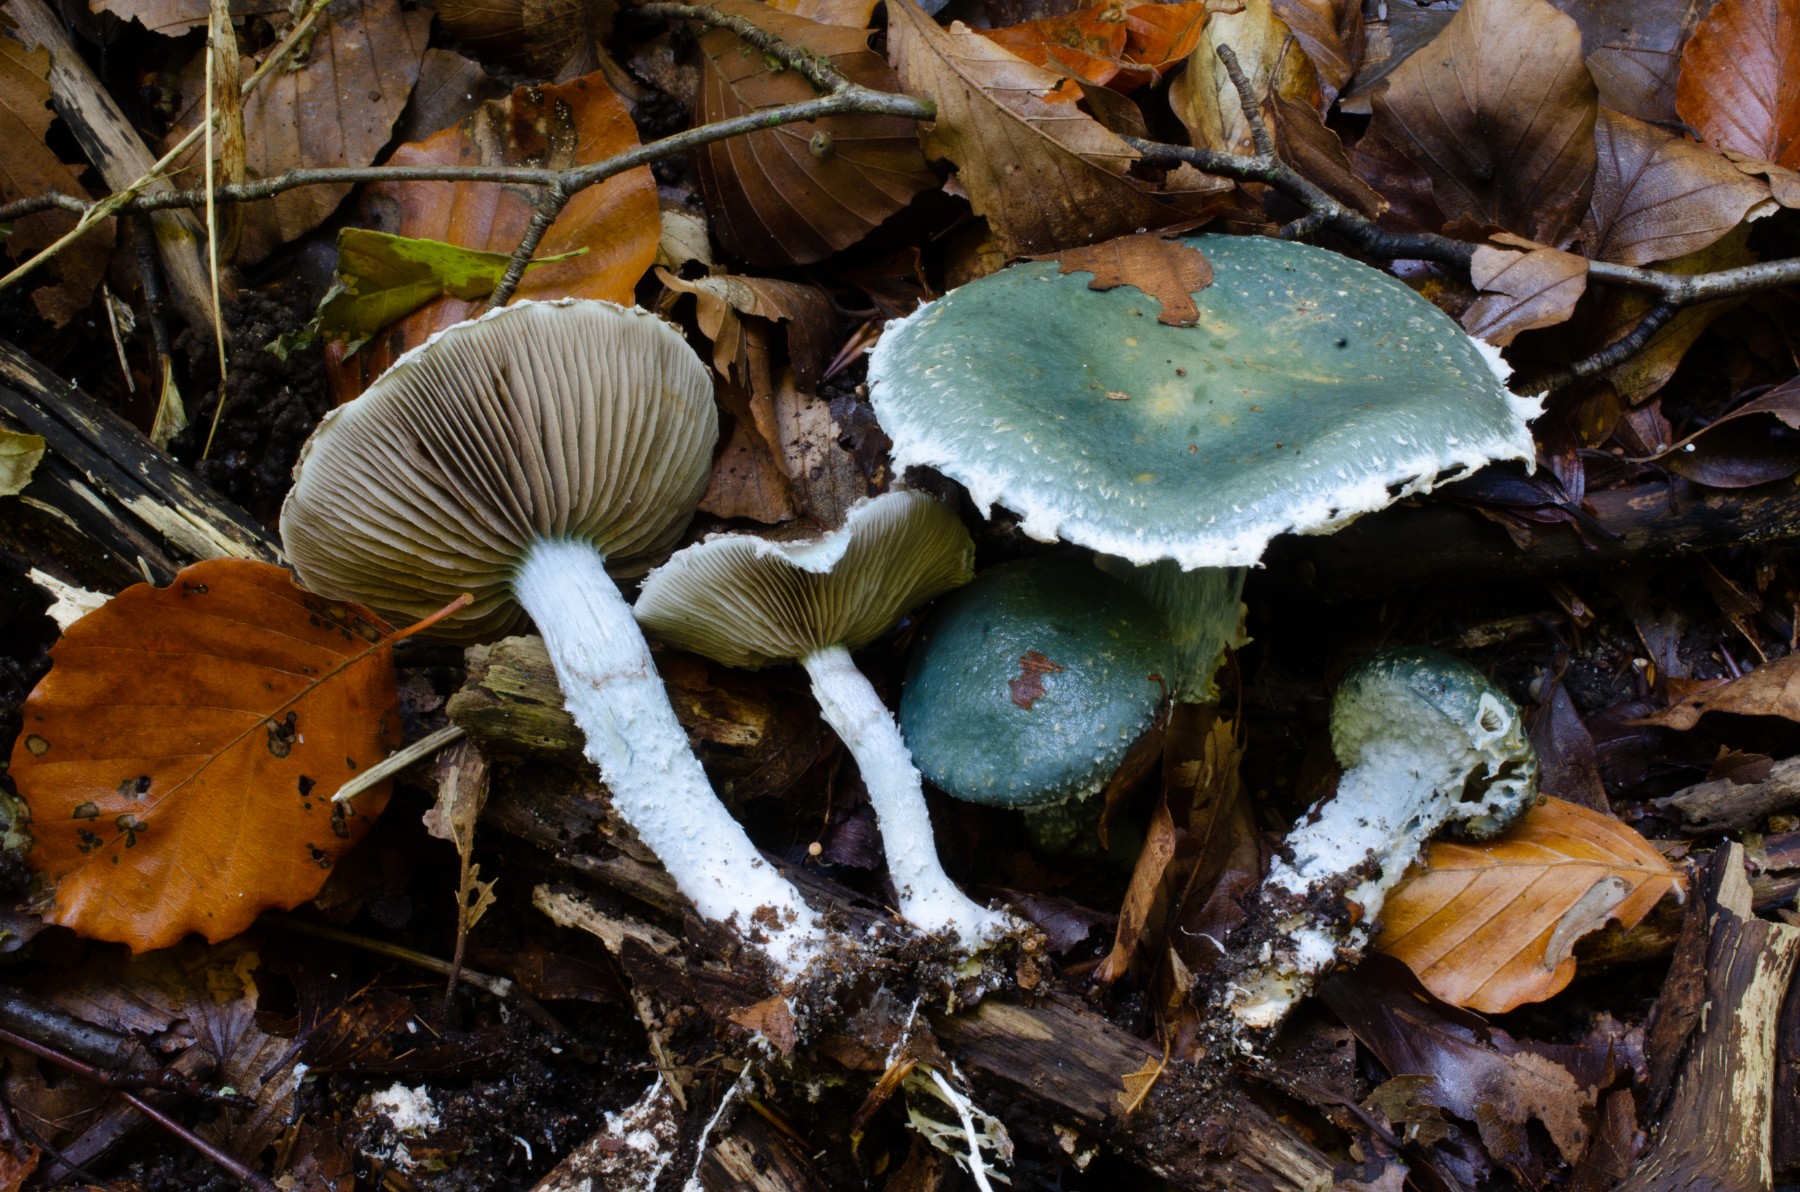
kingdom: Fungi
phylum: Basidiomycota
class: Agaricomycetes
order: Agaricales
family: Strophariaceae
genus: Stropharia
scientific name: Stropharia cyanea
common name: blågrøn bredblad
